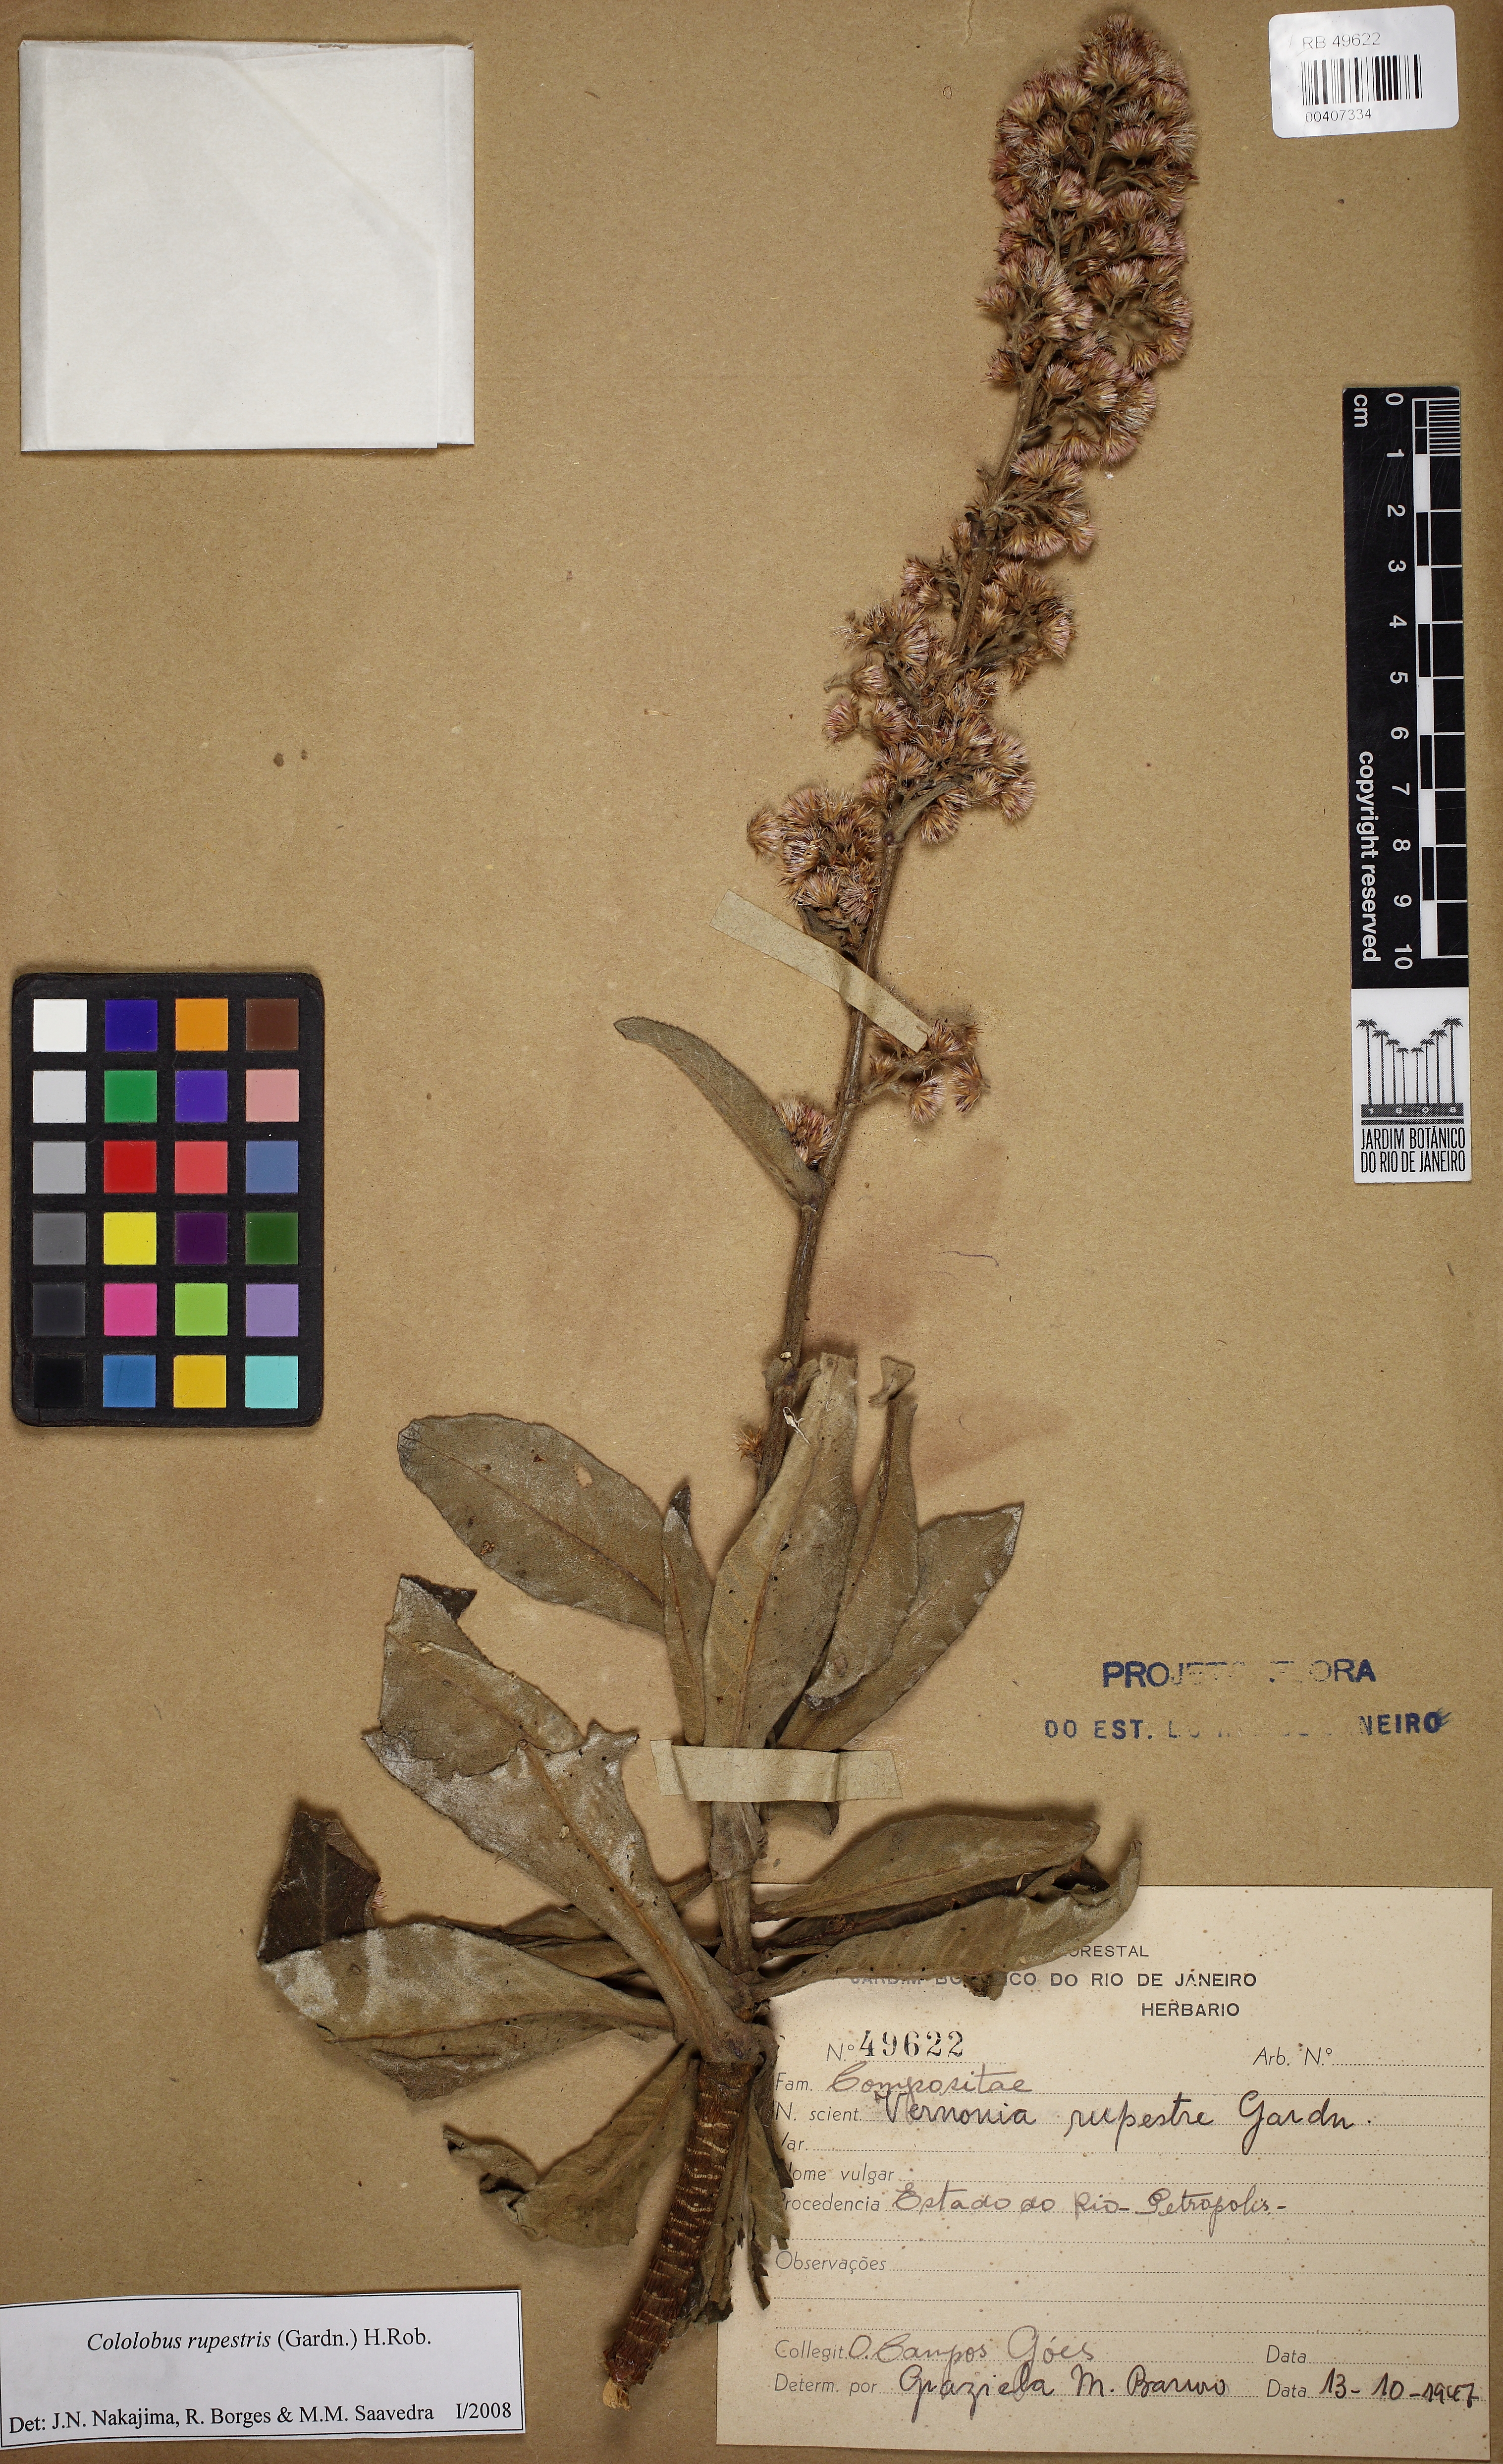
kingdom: Plantae
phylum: Tracheophyta
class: Magnoliopsida
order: Asterales
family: Asteraceae
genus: Cololobus
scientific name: Cololobus rupestris
